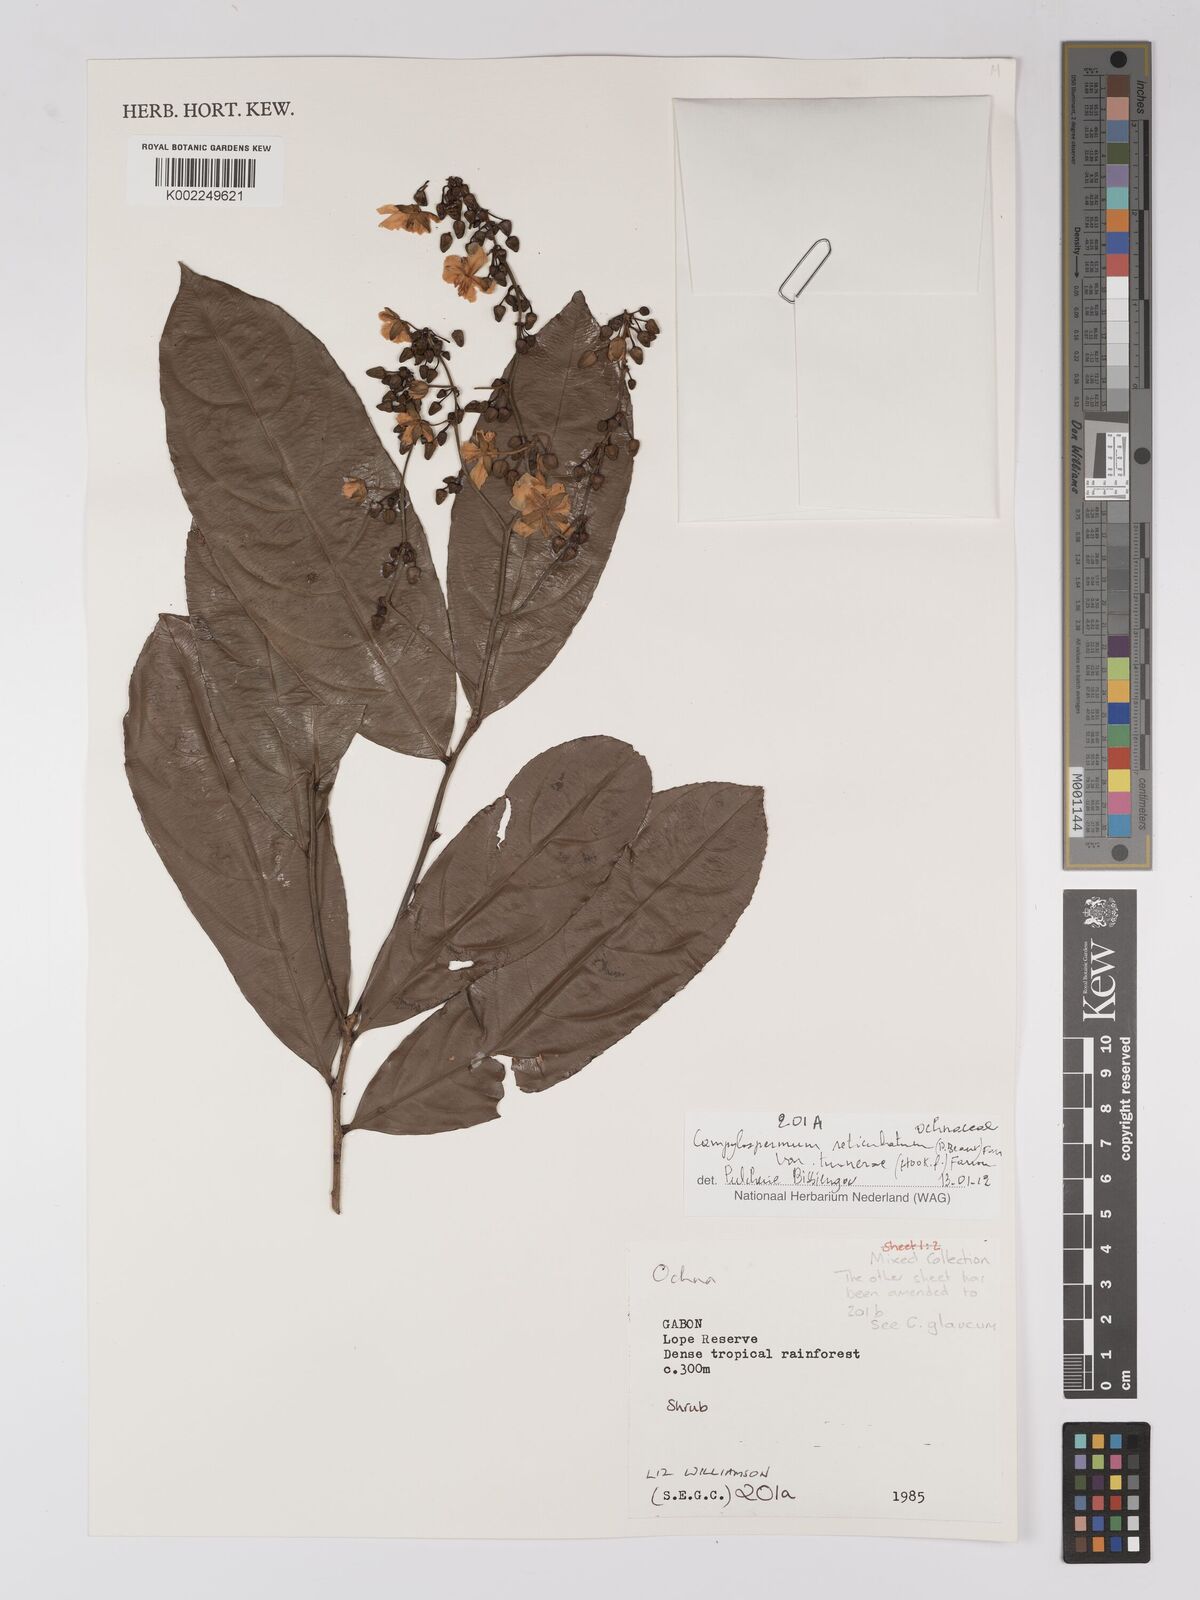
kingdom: Plantae
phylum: Tracheophyta
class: Magnoliopsida
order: Malpighiales
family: Ochnaceae
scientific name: Ochnaceae
